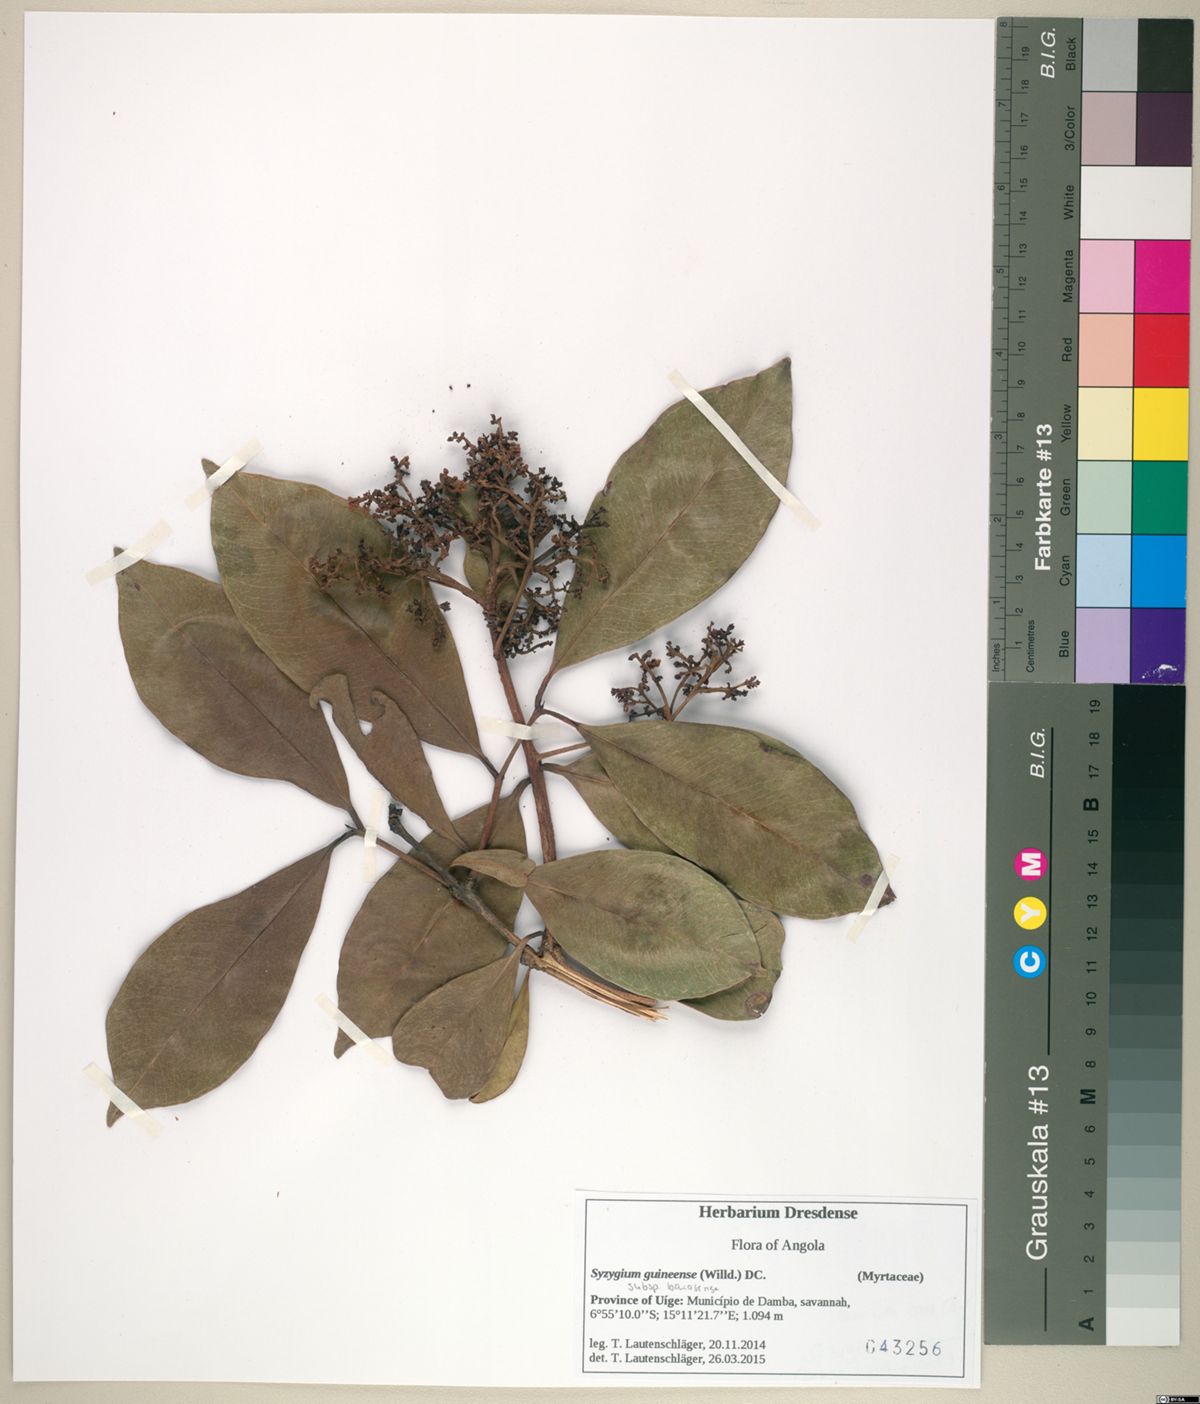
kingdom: Plantae
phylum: Tracheophyta
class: Magnoliopsida
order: Myrtales
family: Myrtaceae
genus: Syzygium
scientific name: Syzygium guineense
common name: Water-pear
